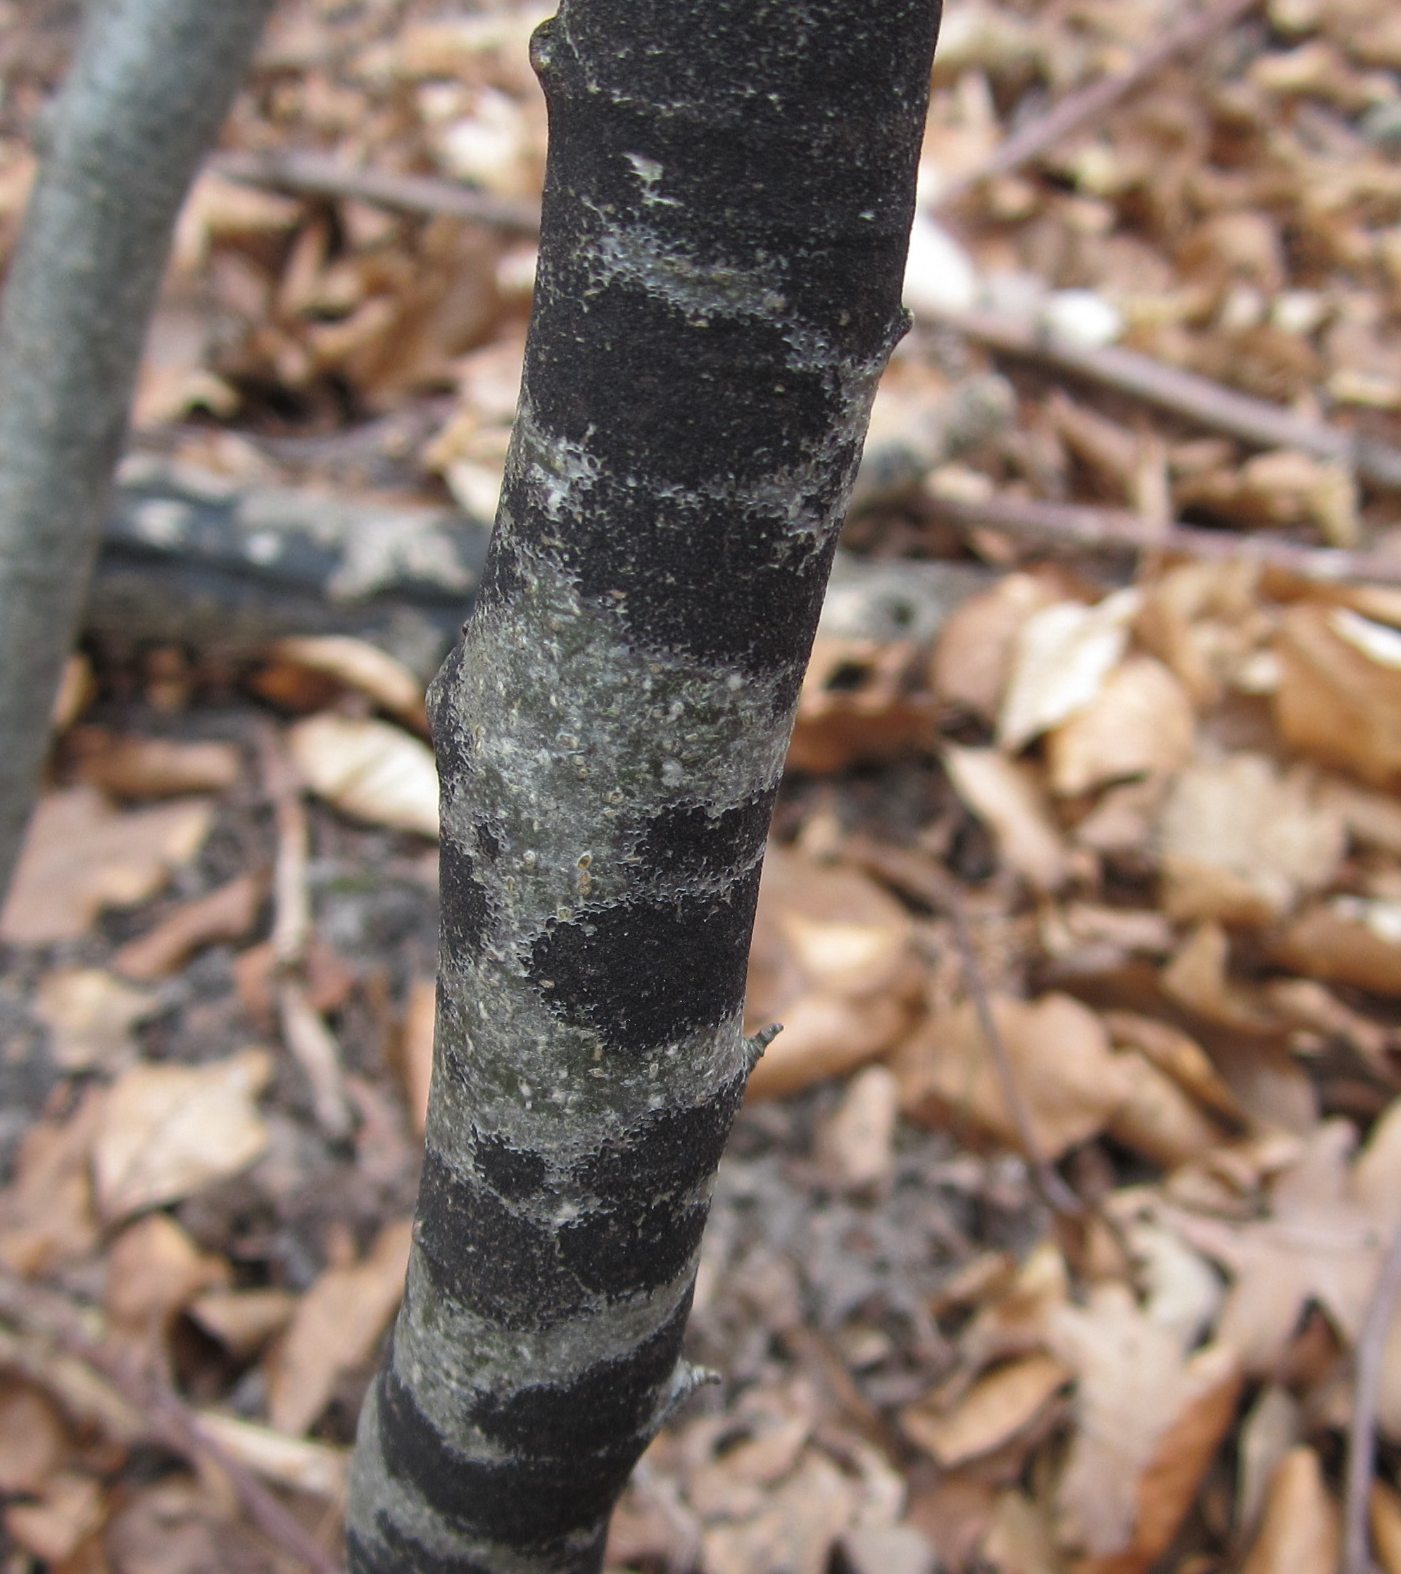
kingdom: Fungi
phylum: Ascomycota
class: Leotiomycetes
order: Rhytismatales
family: Ascodichaenaceae
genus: Ascodichaena
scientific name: Ascodichaena rugosa
